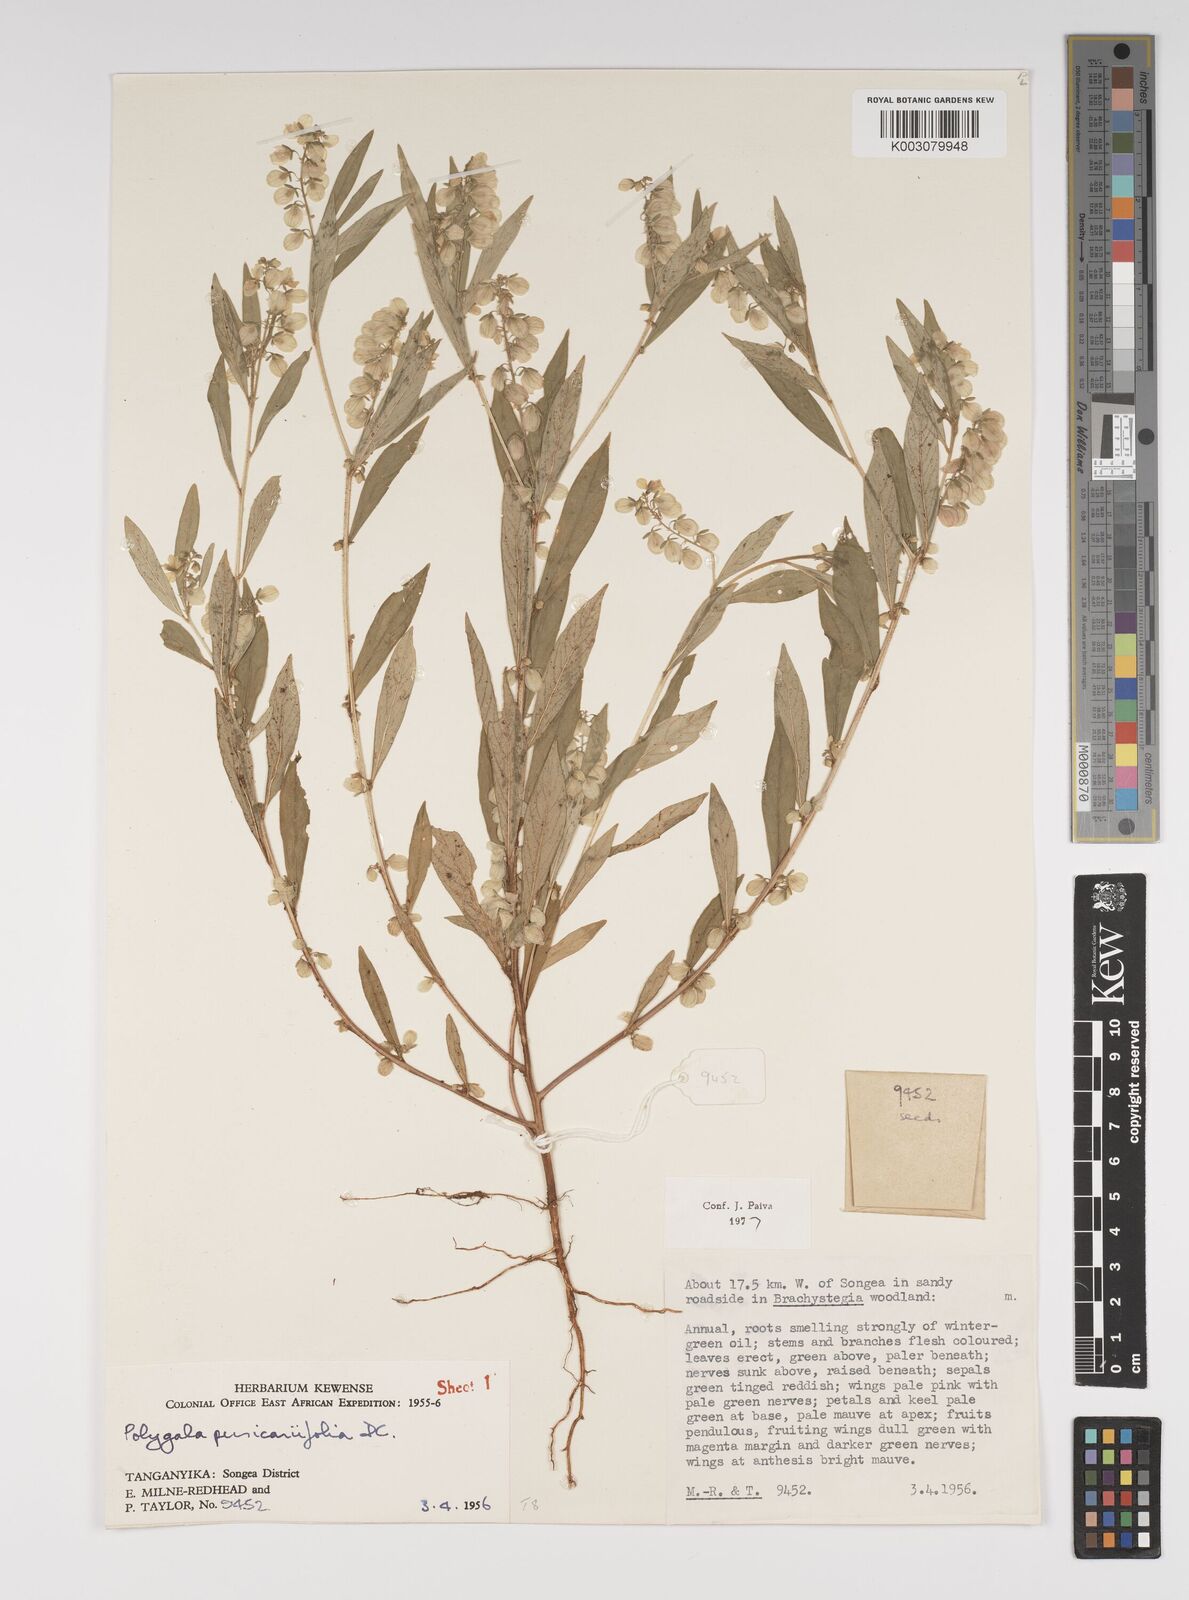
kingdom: Plantae
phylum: Tracheophyta
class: Magnoliopsida
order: Fabales
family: Polygalaceae
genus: Polygala
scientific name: Polygala persicariifolia
